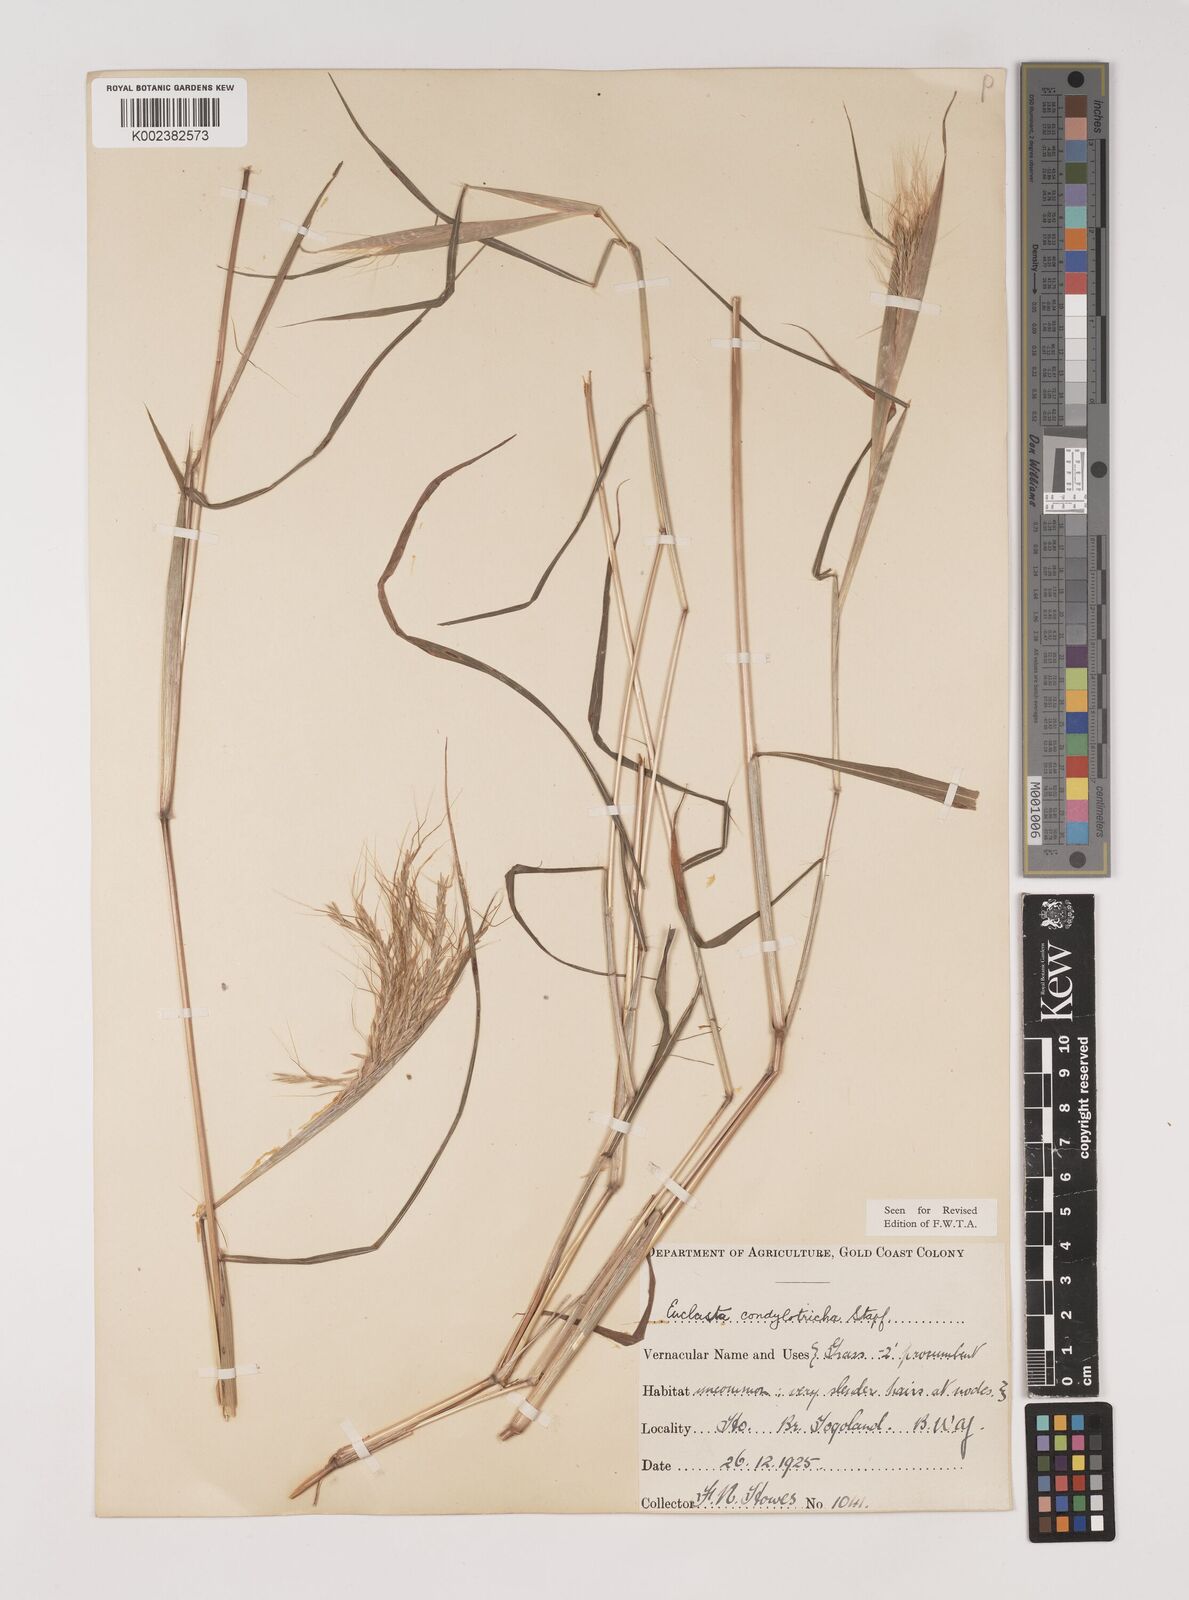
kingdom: Plantae
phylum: Tracheophyta
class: Liliopsida
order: Poales
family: Poaceae
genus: Euclasta
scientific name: Euclasta condylotricha
